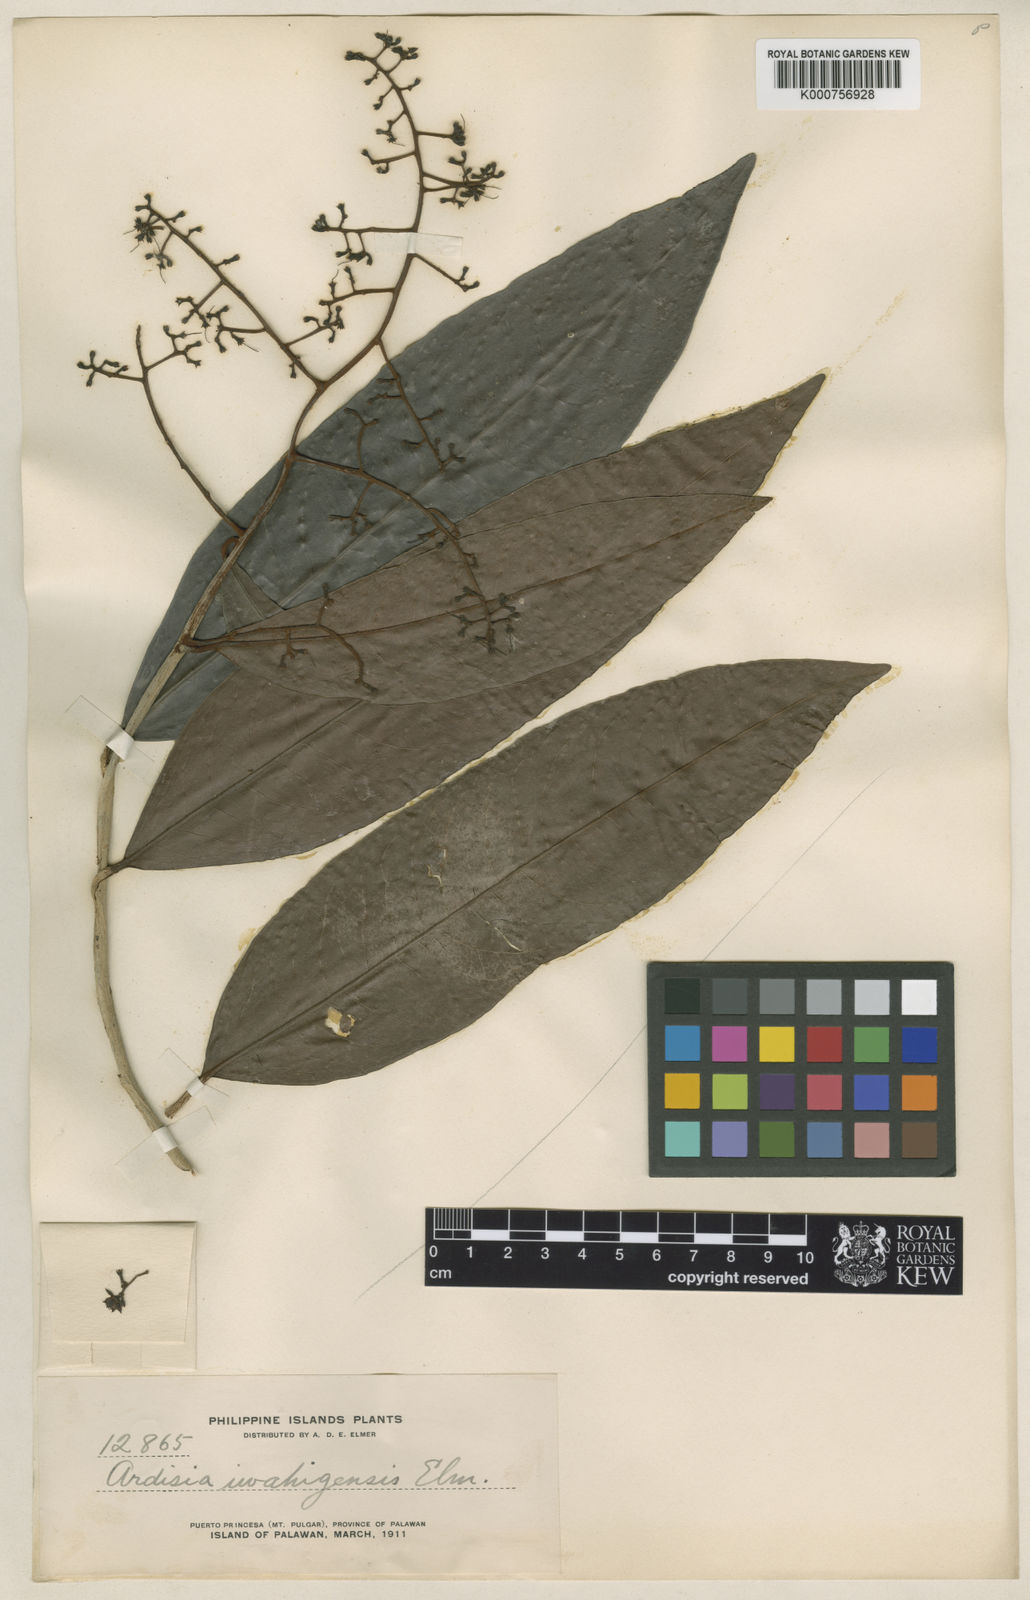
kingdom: Plantae
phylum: Tracheophyta
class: Magnoliopsida
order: Ericales
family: Primulaceae
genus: Ardisia
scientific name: Ardisia iwahigensis
